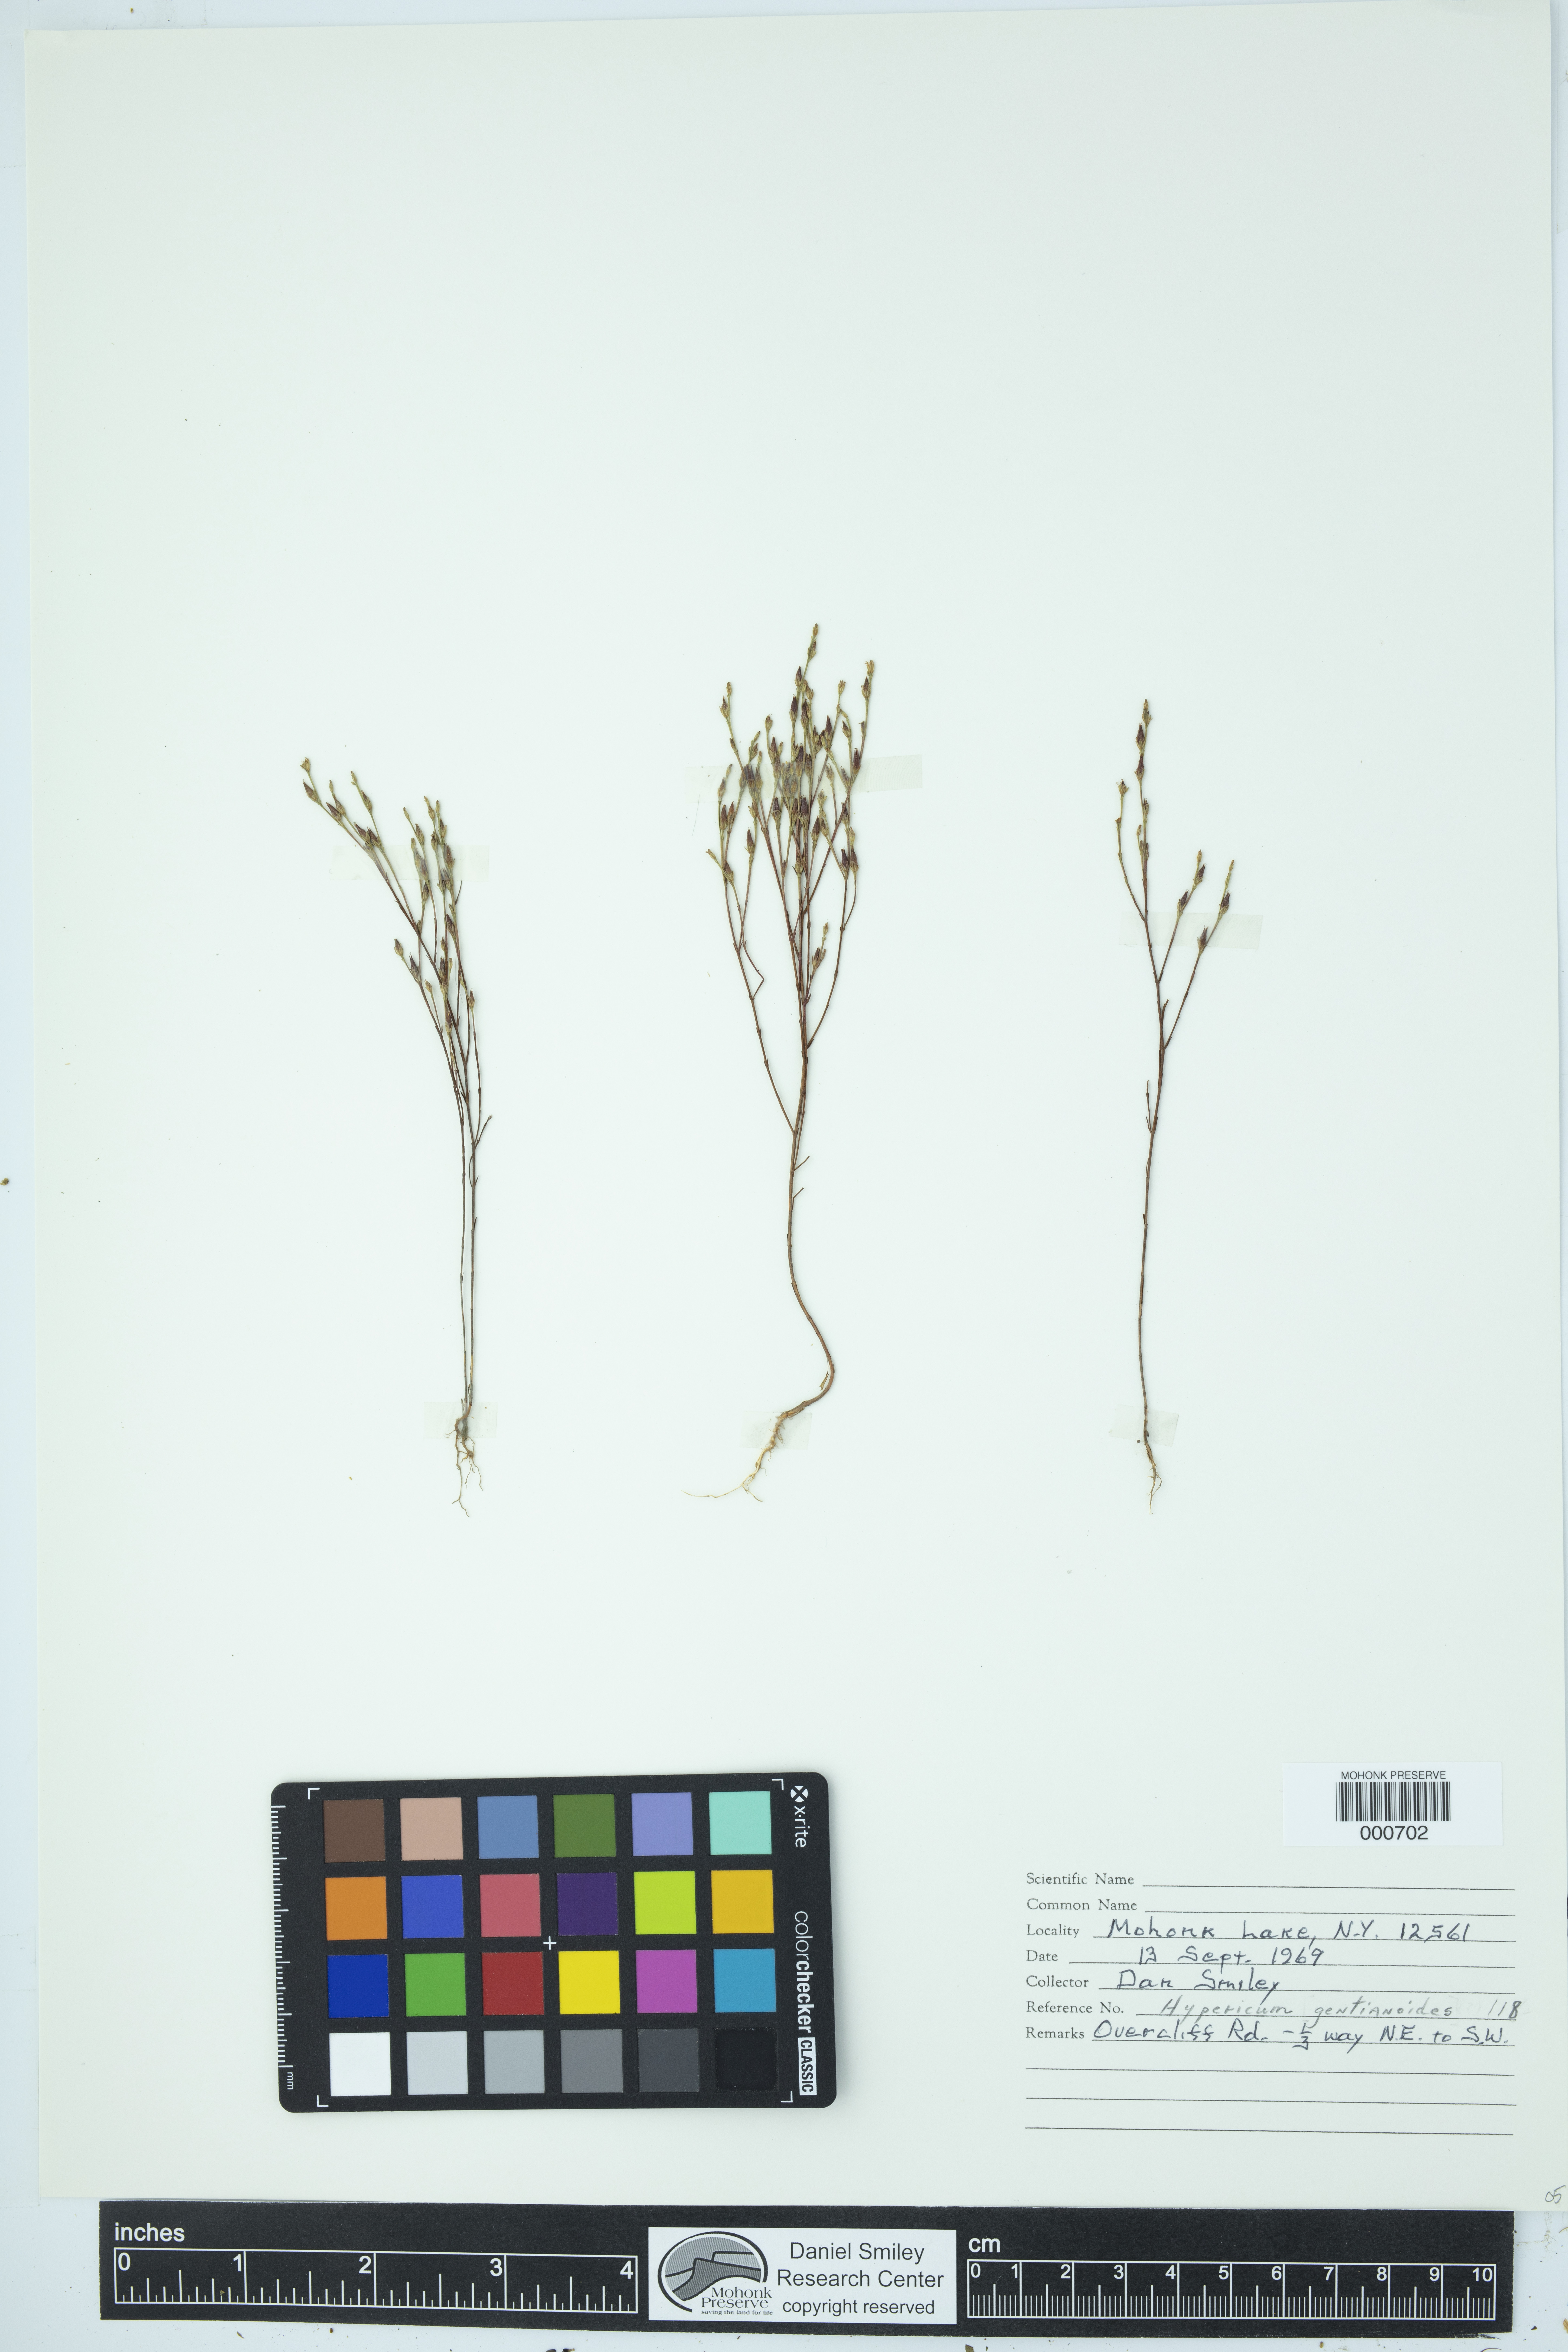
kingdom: Plantae
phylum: Tracheophyta
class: Magnoliopsida
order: Malpighiales
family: Hypericaceae
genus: Hypericum
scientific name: Hypericum gentianoides
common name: Gentian-leaved st. john's-wort
